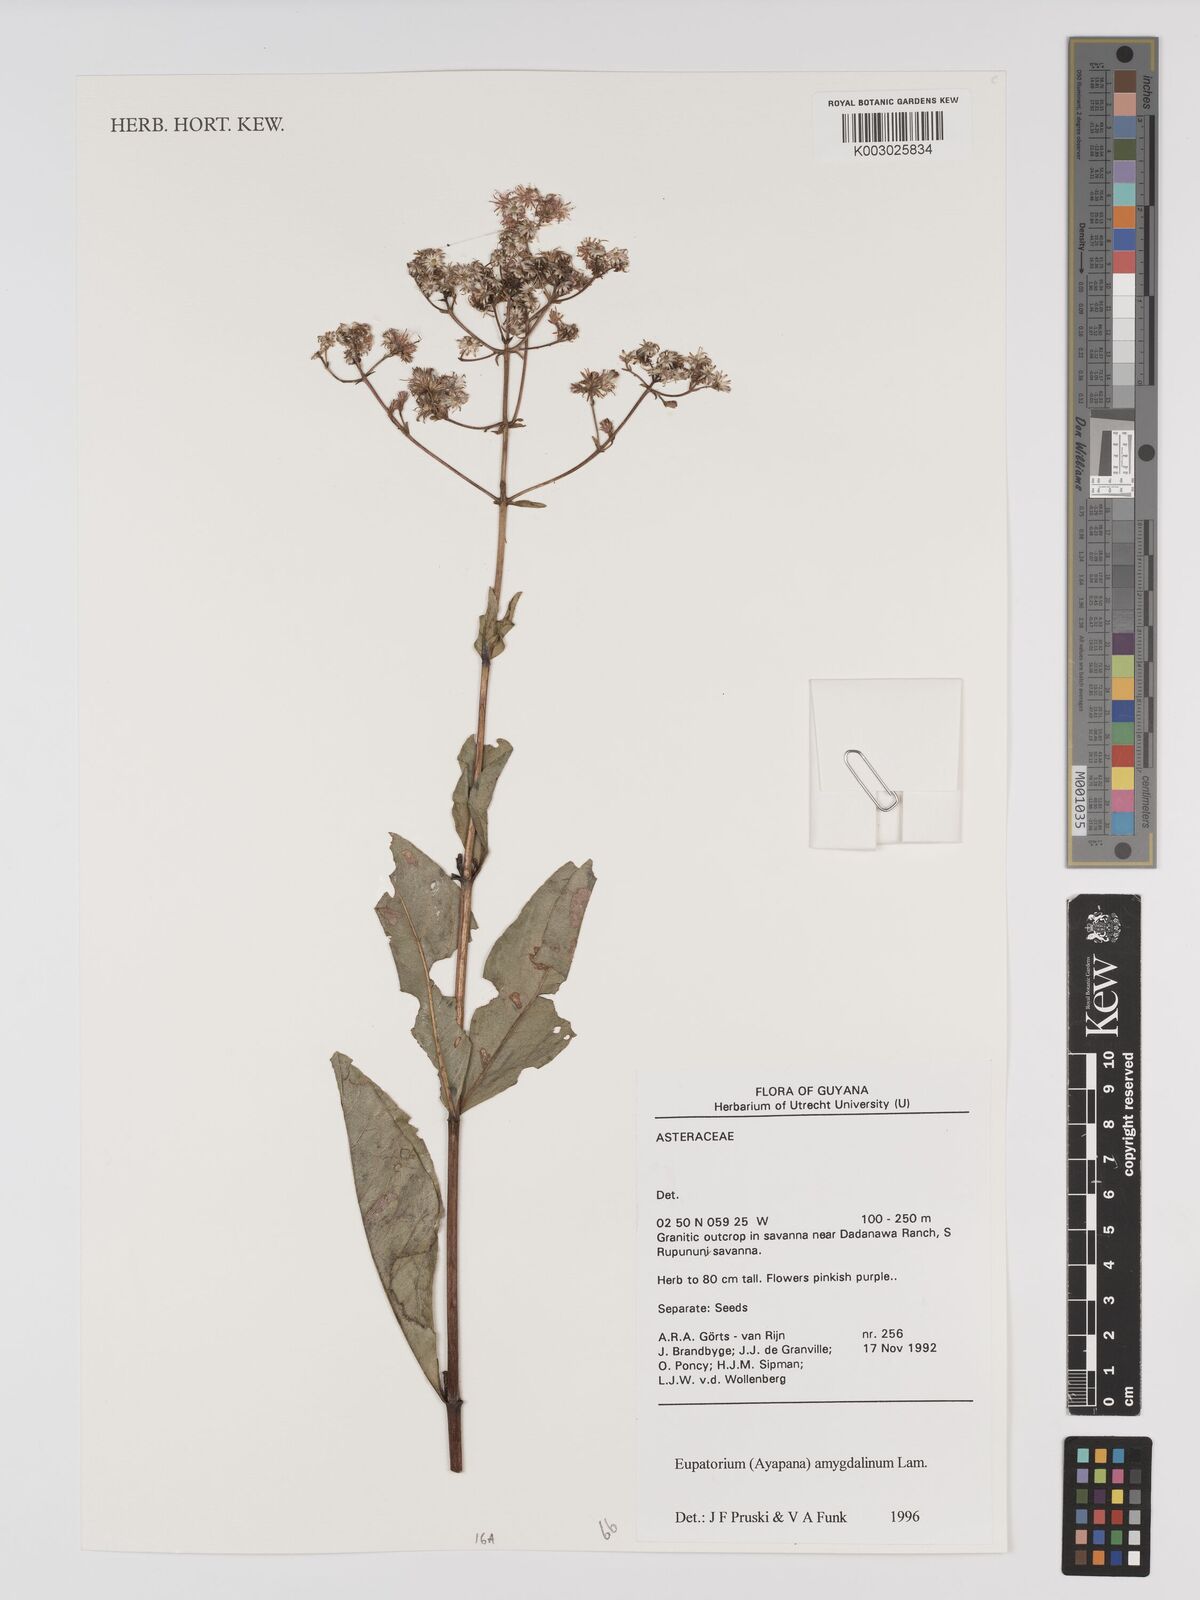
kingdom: Plantae
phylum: Tracheophyta
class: Magnoliopsida
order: Asterales
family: Asteraceae
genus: Ayapana
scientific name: Ayapana amygdalina
